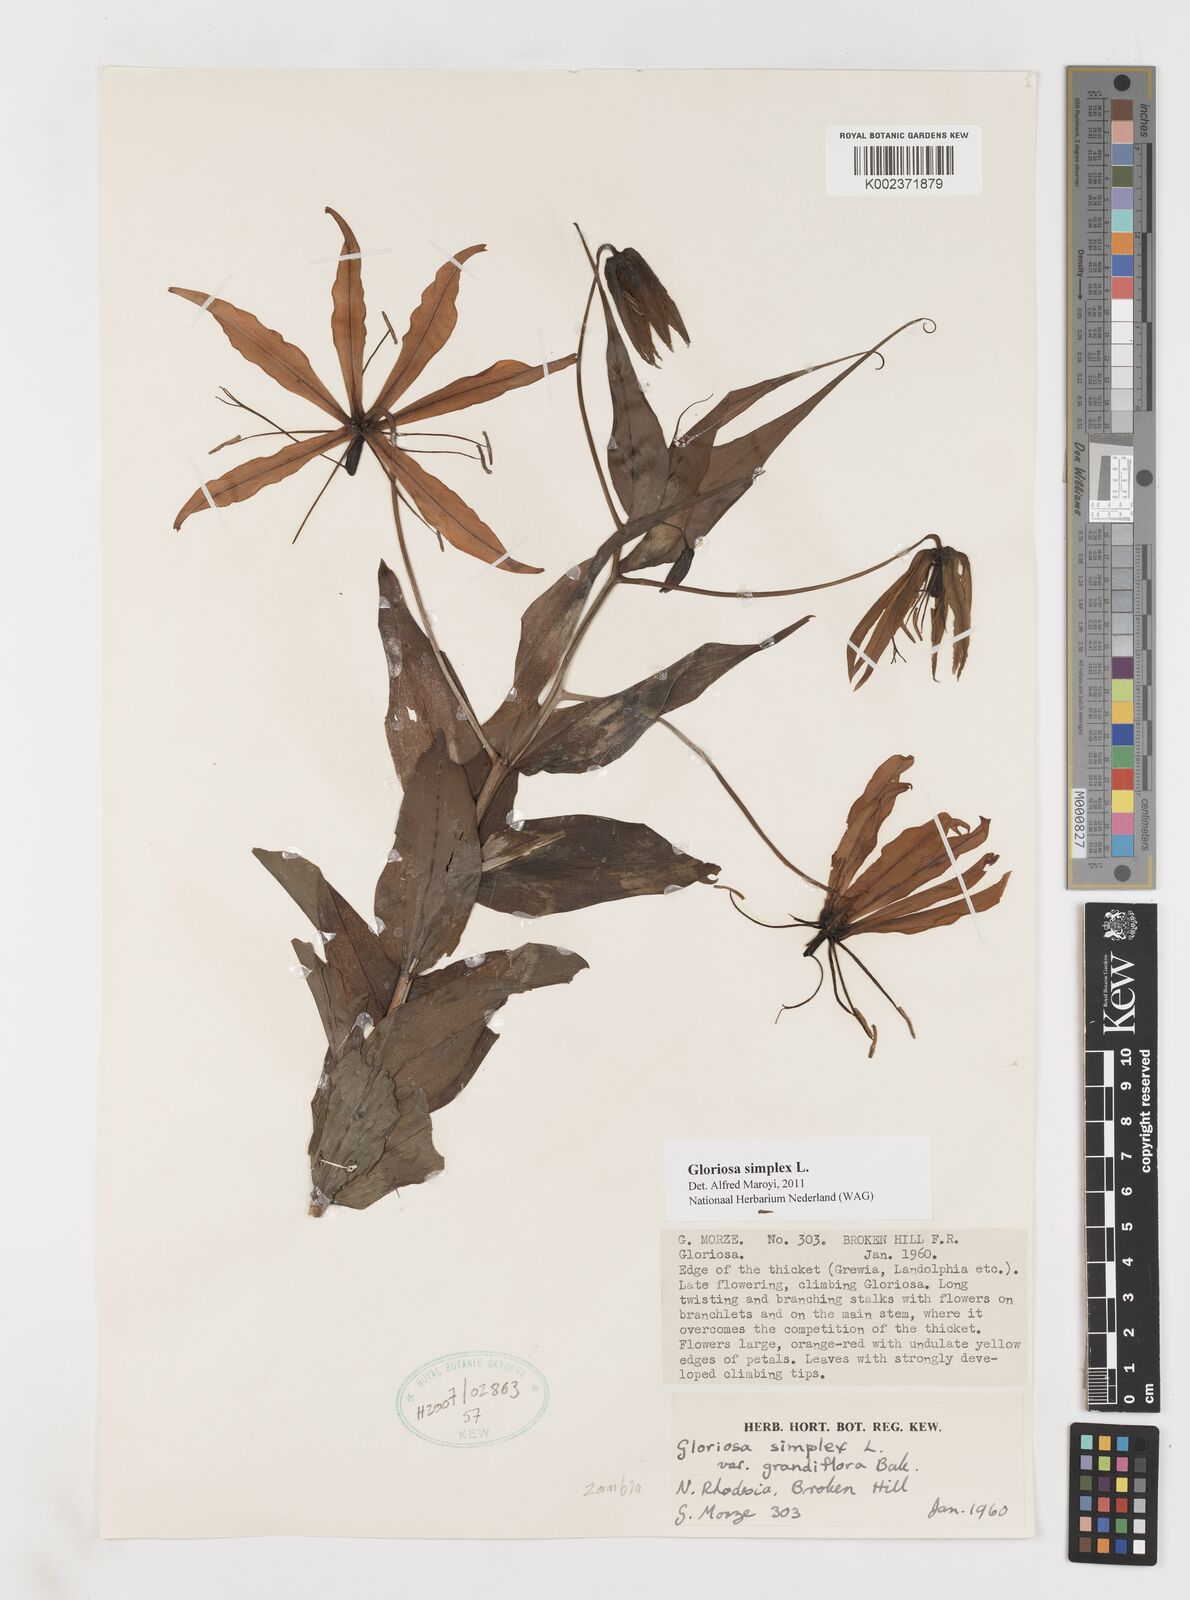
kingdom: Plantae
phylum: Tracheophyta
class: Liliopsida
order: Liliales
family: Colchicaceae
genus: Gloriosa
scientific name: Gloriosa simplex
